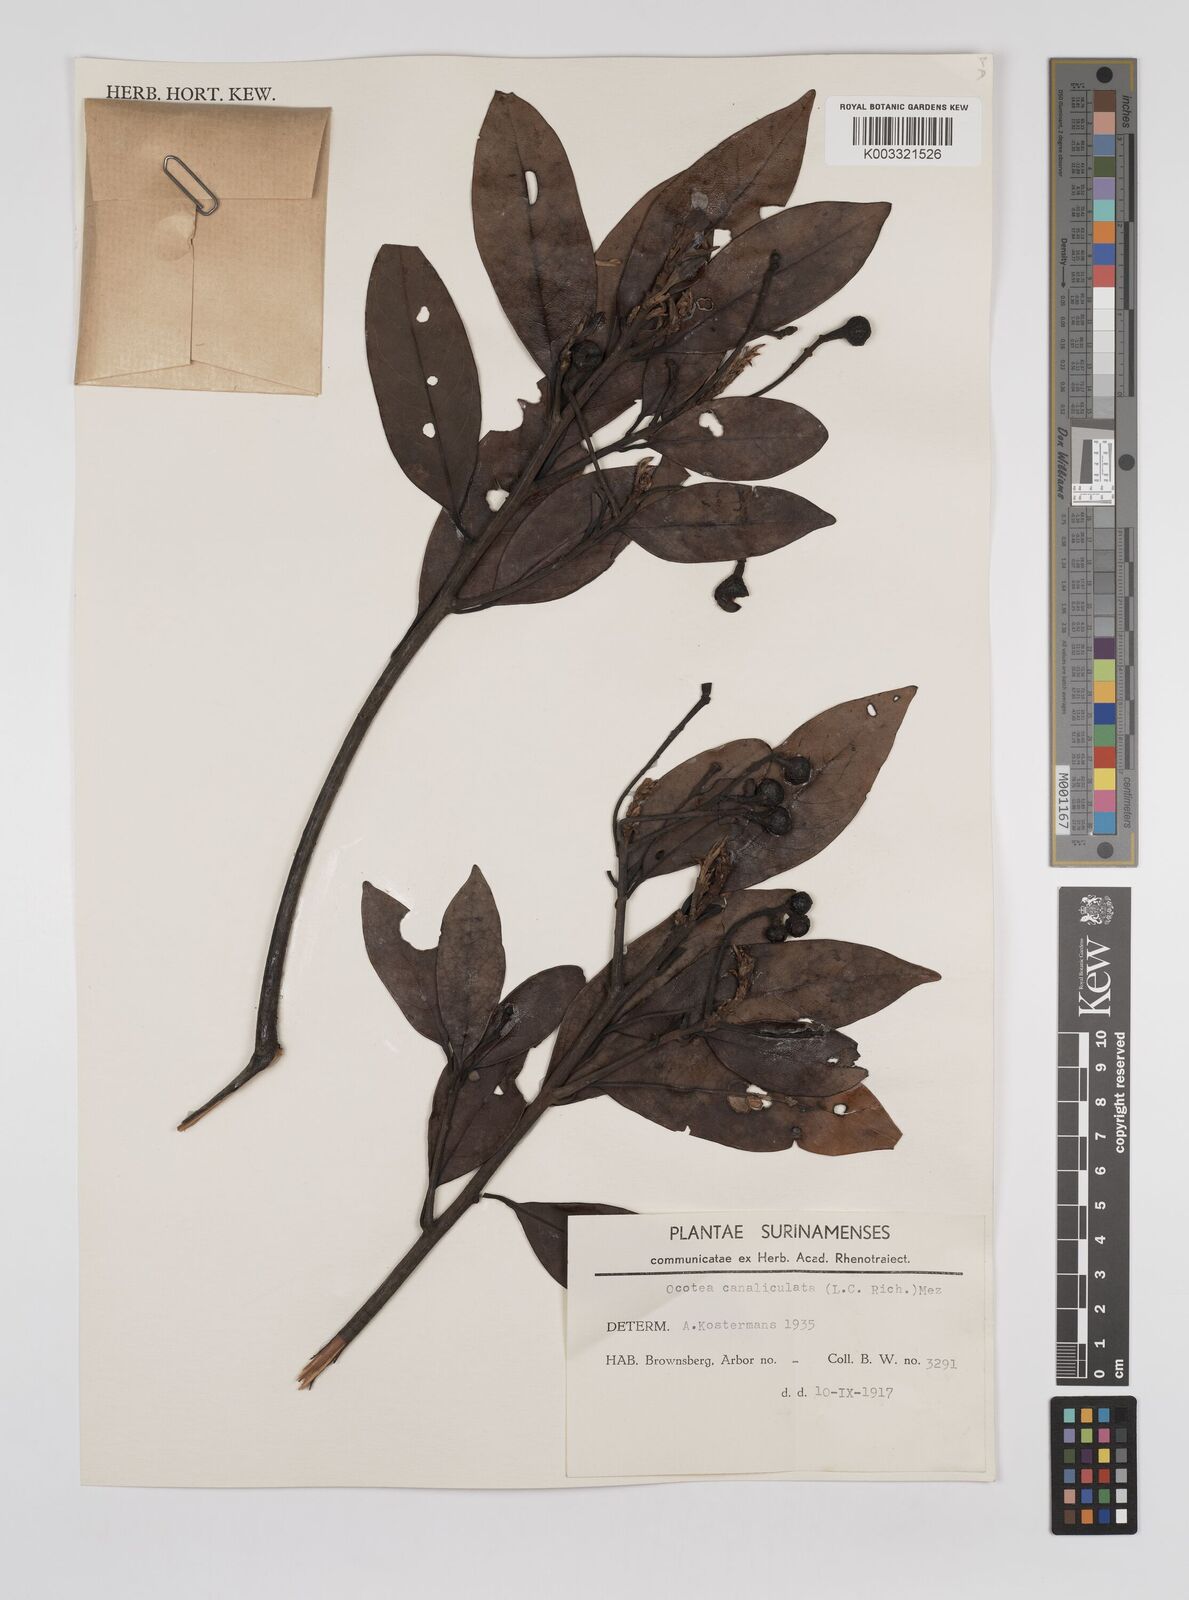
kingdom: Plantae
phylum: Tracheophyta
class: Magnoliopsida
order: Laurales
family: Lauraceae
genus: Ocotea
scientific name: Ocotea canaliculata
